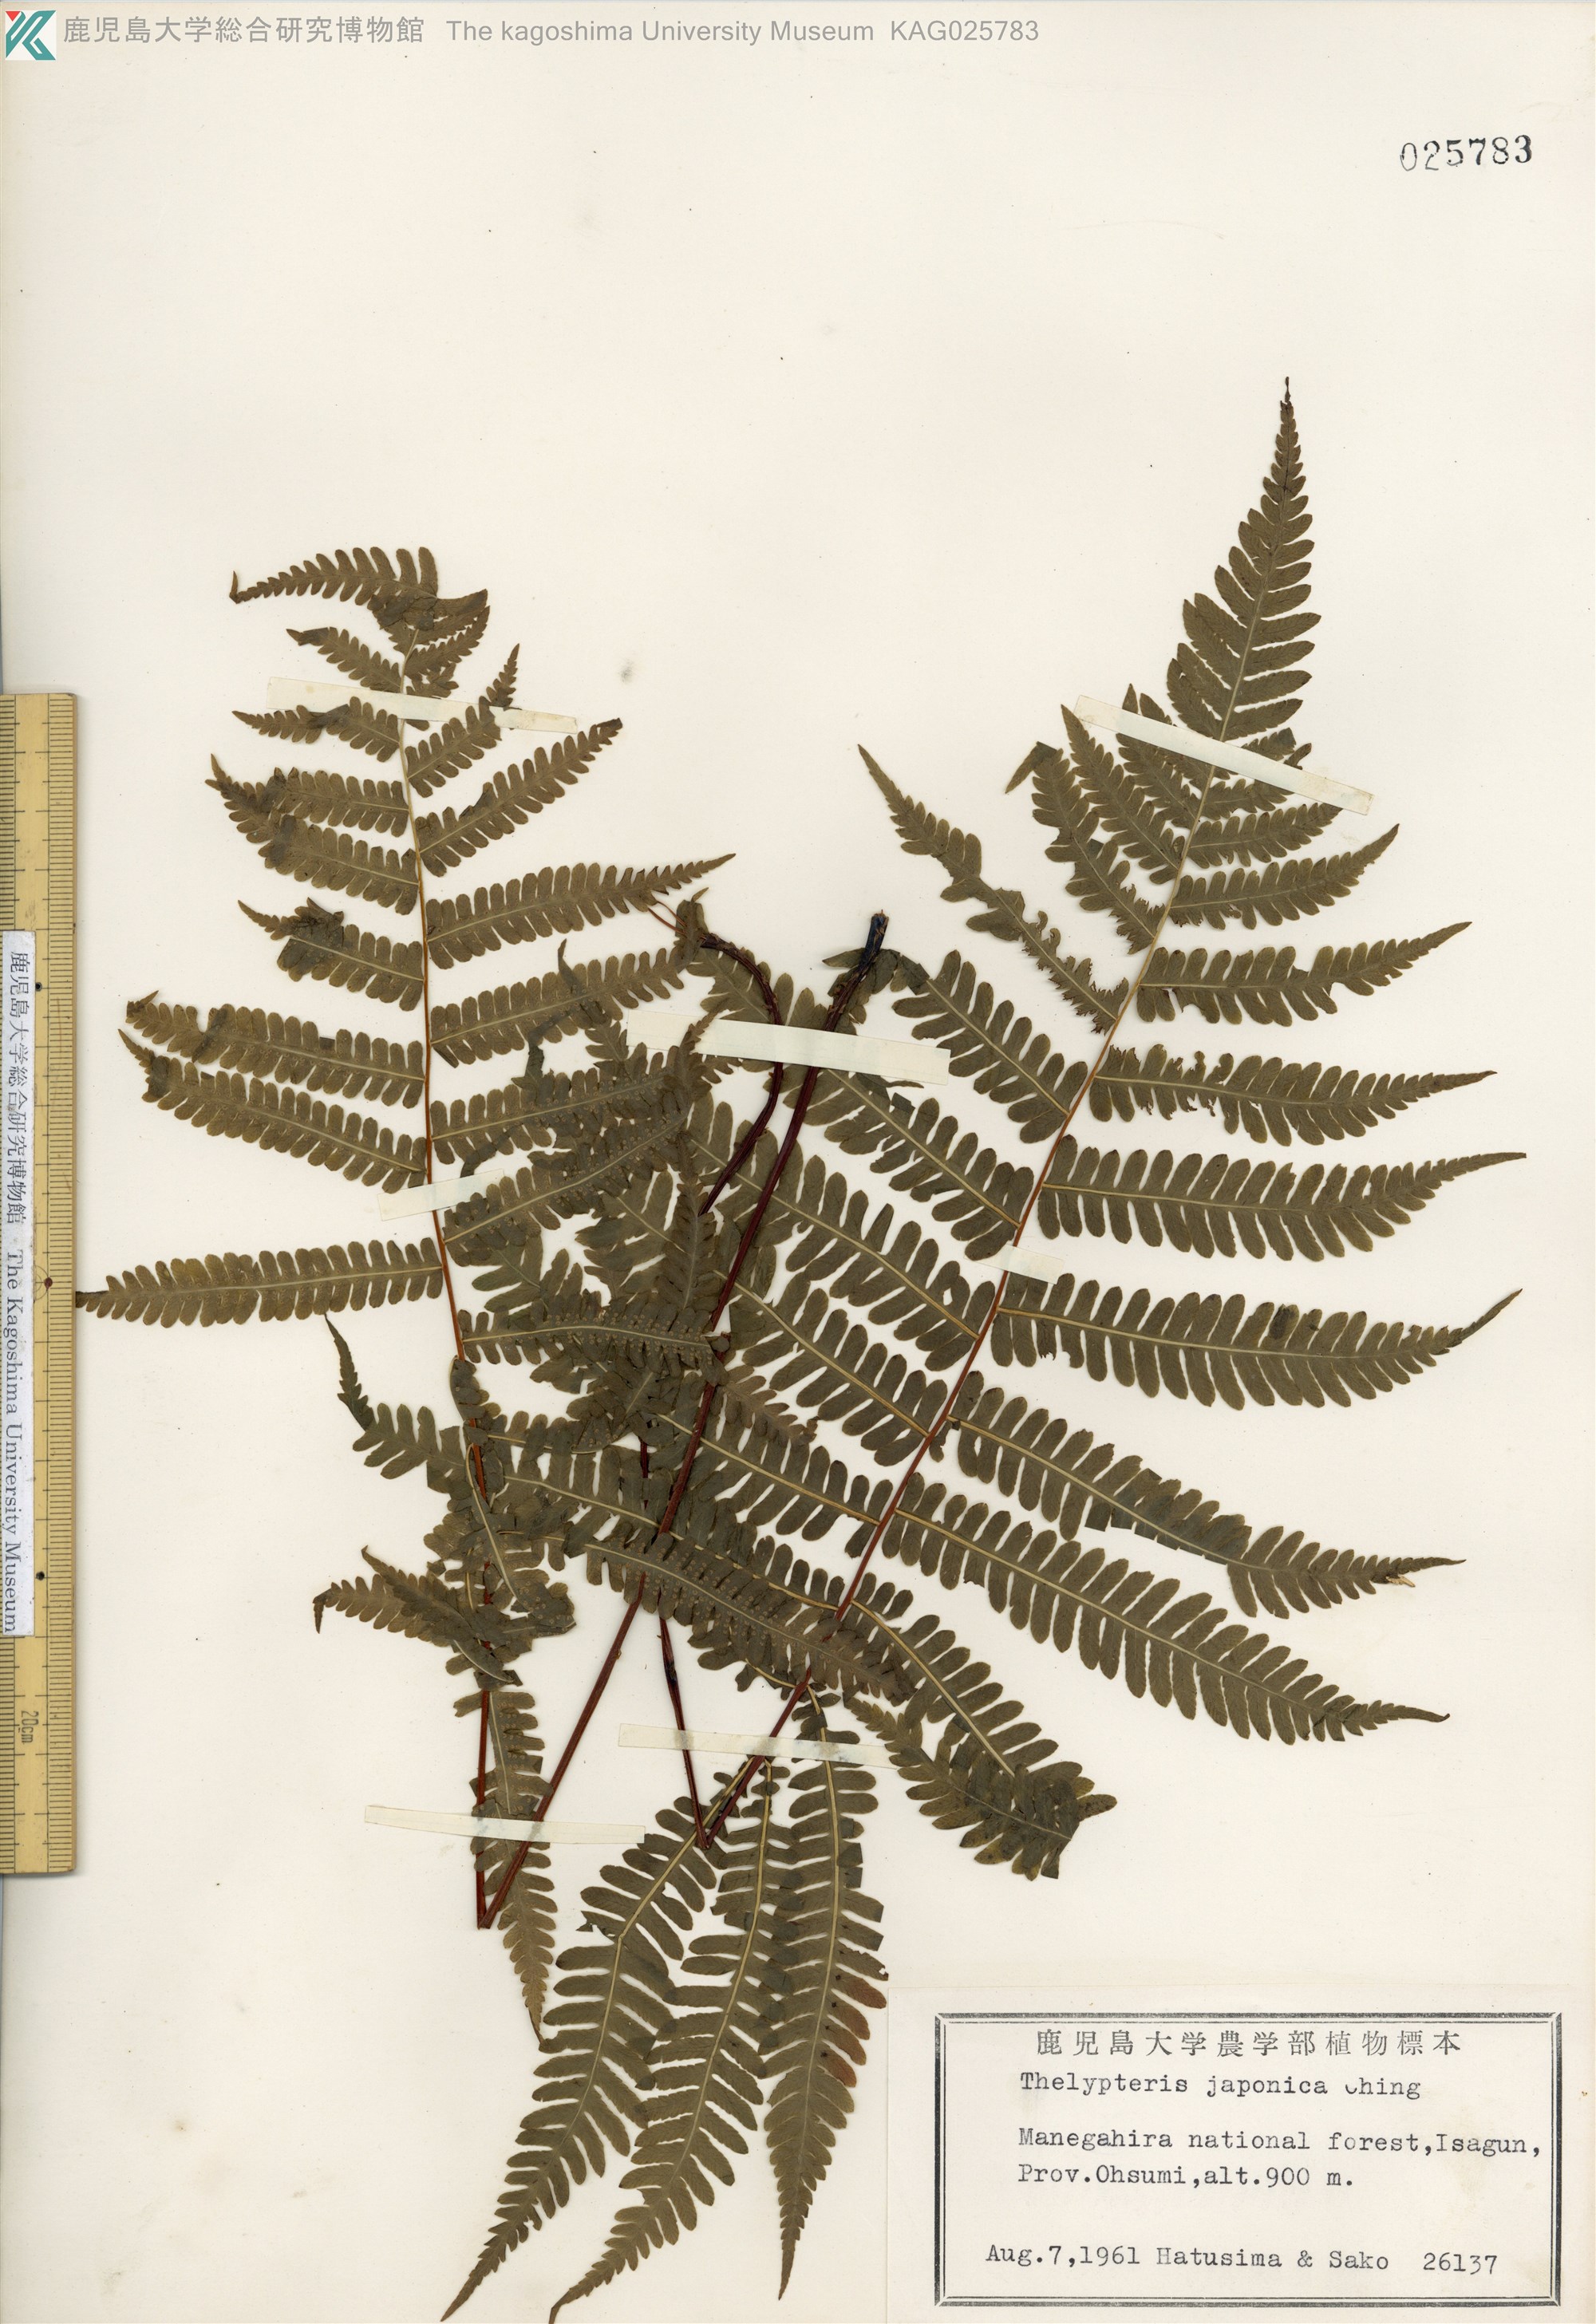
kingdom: Plantae
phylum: Tracheophyta
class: Polypodiopsida
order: Polypodiales
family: Thelypteridaceae
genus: Coryphopteris
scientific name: Coryphopteris japonica
